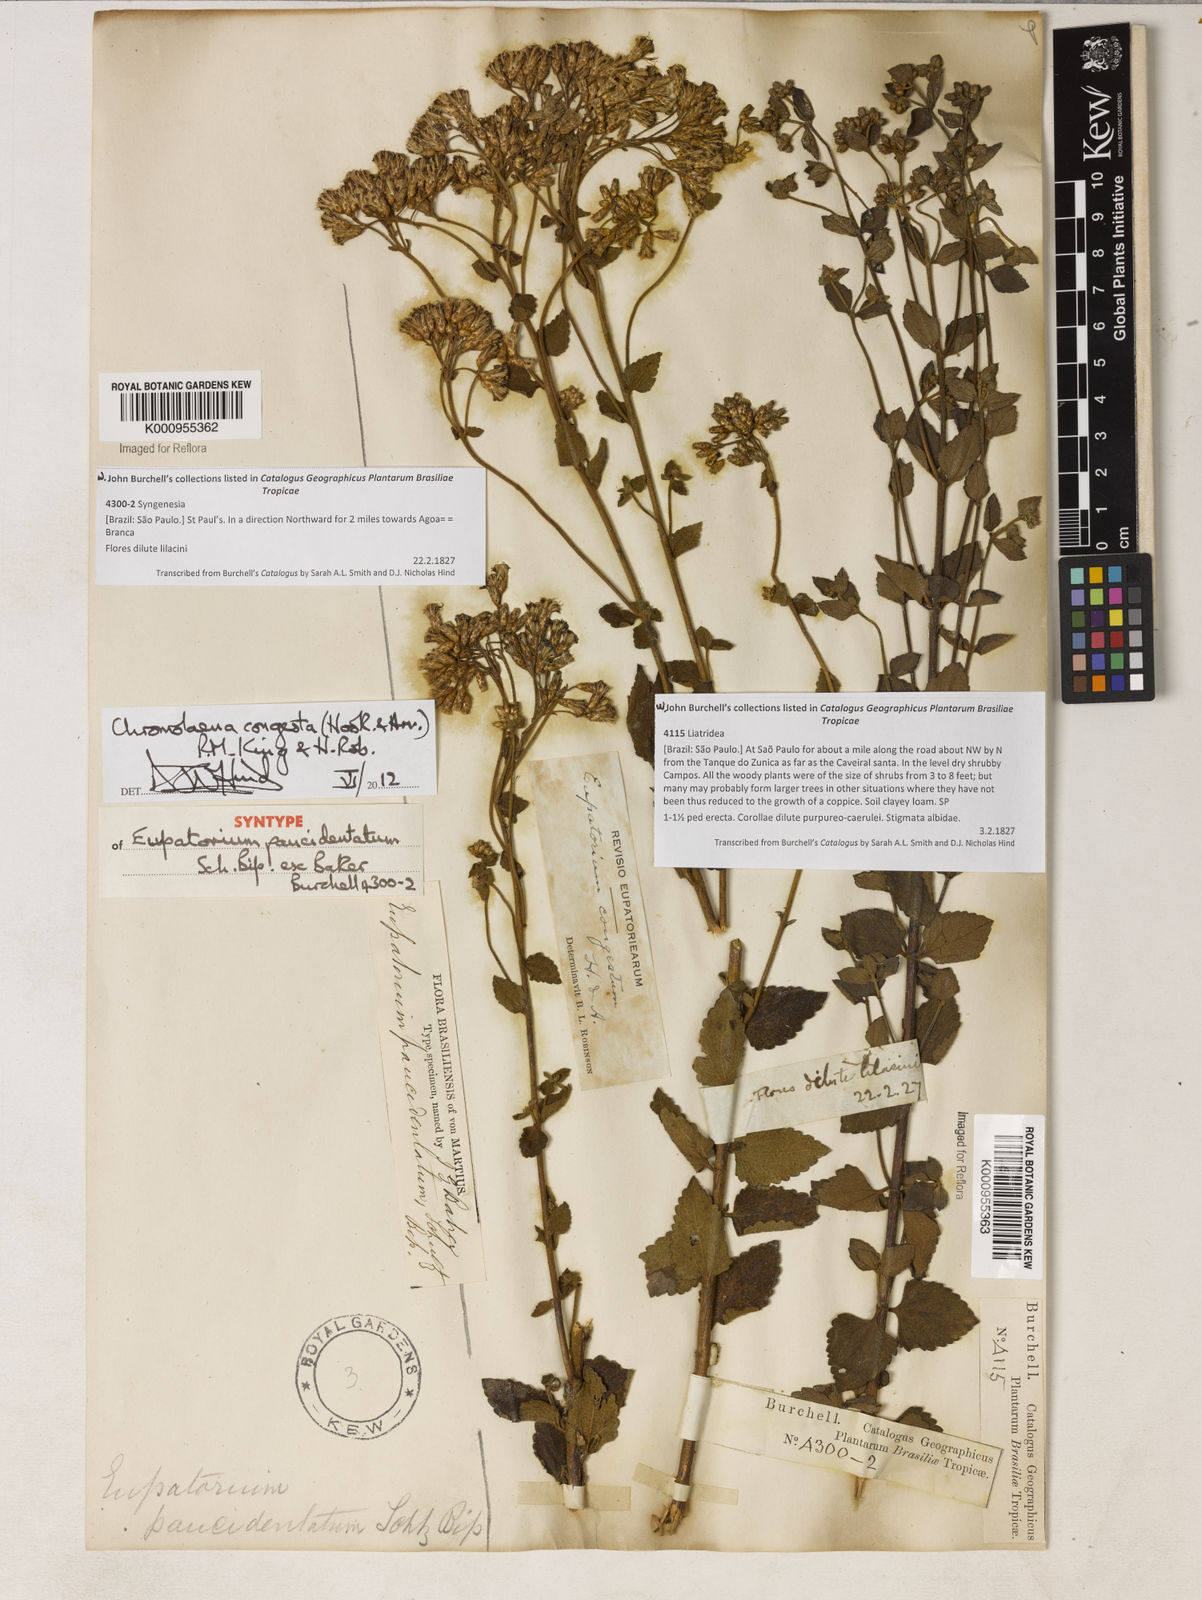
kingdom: Plantae
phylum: Tracheophyta
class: Magnoliopsida
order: Asterales
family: Asteraceae
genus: Chromolaena
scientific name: Chromolaena congesta
